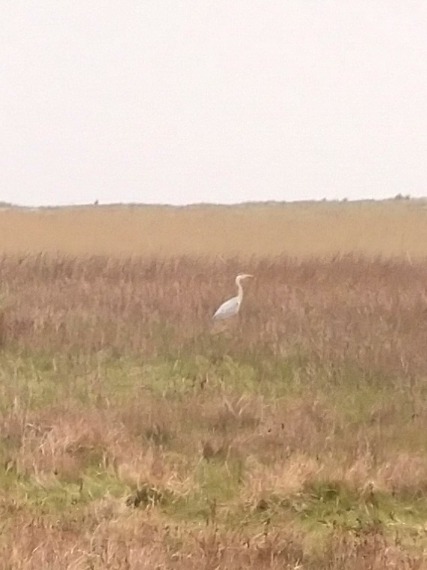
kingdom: Animalia
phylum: Chordata
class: Aves
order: Pelecaniformes
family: Ardeidae
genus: Ardea
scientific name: Ardea cinerea
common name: Fiskehejre
